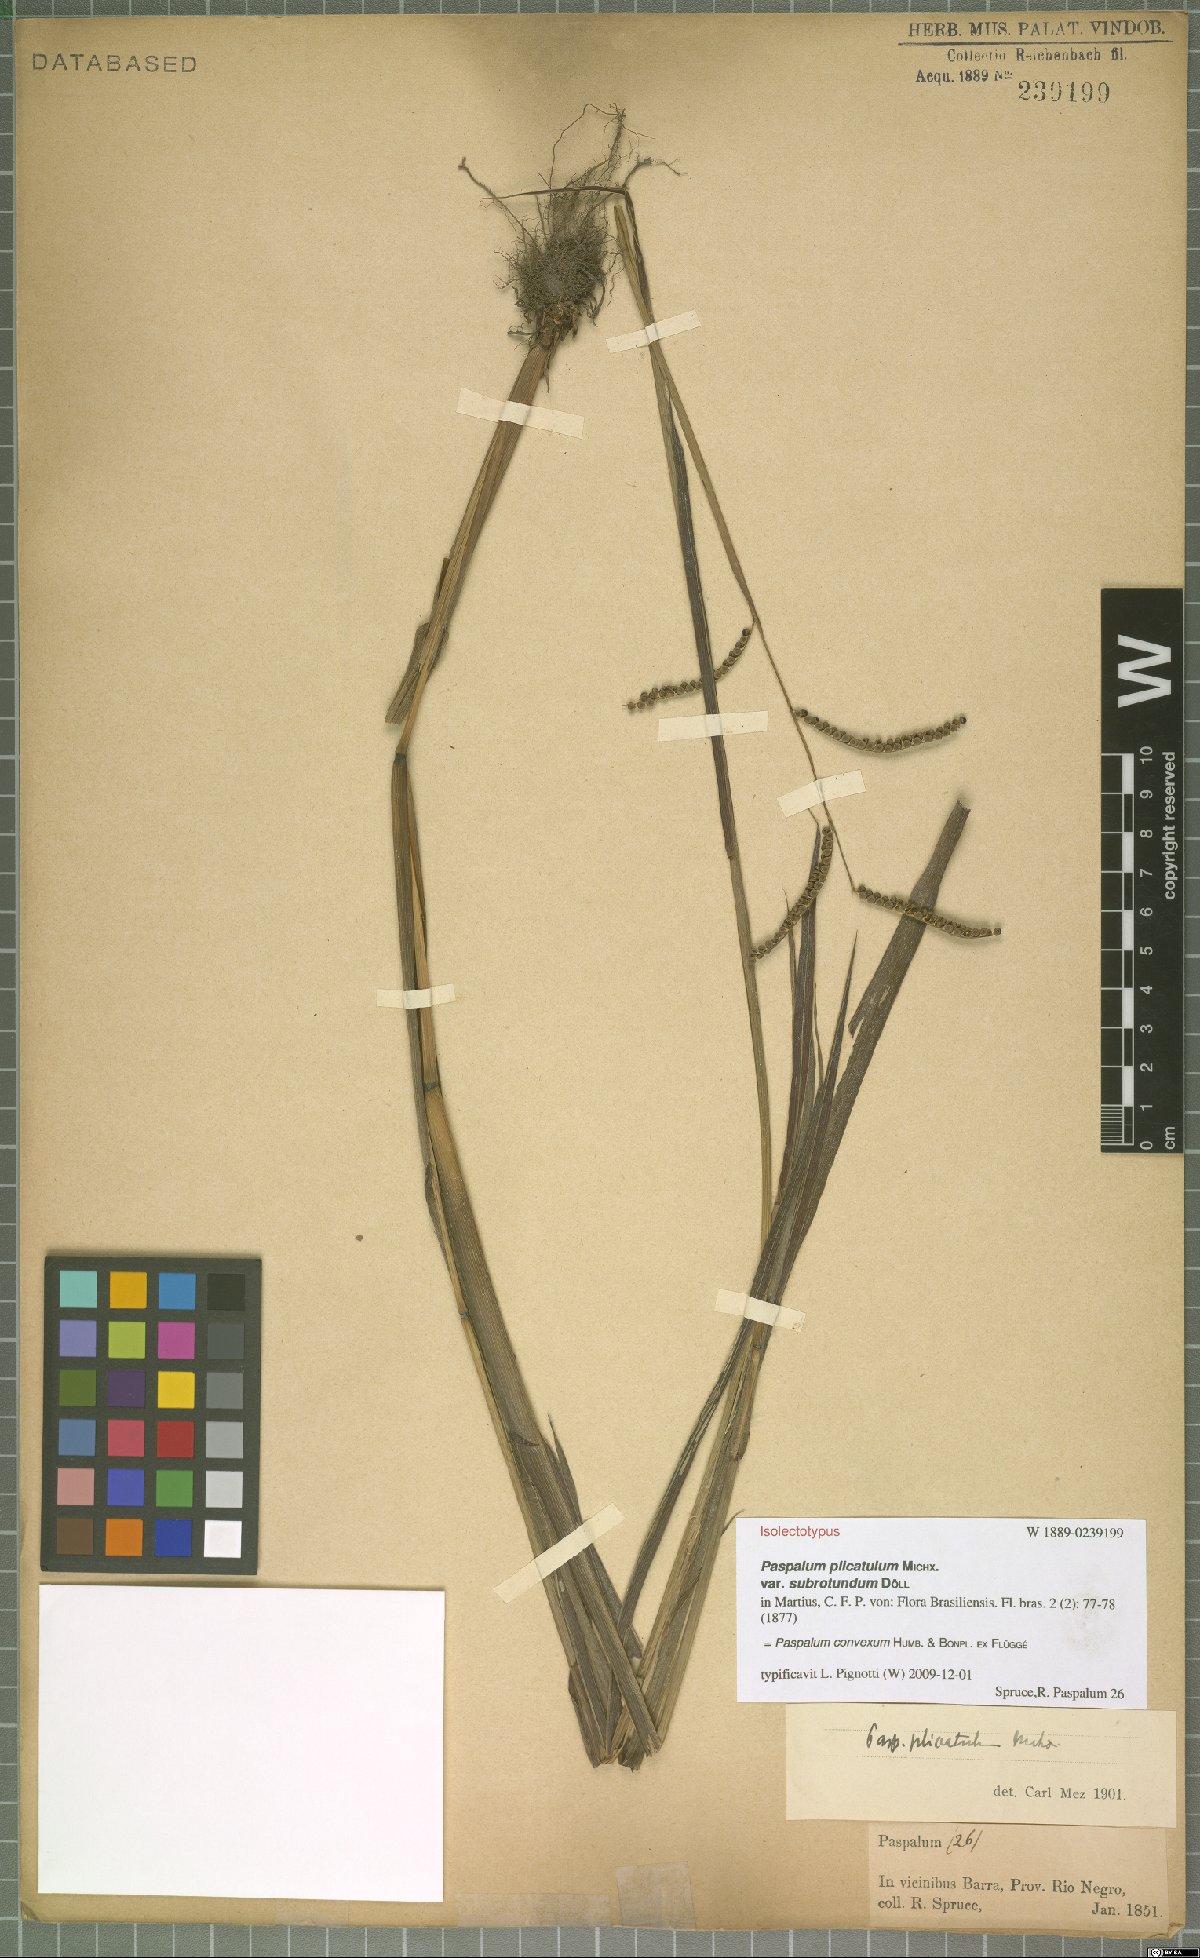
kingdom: Plantae
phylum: Tracheophyta
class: Liliopsida
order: Poales
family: Poaceae
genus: Paspalum
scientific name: Paspalum convexum
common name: Latin american crowngrass
